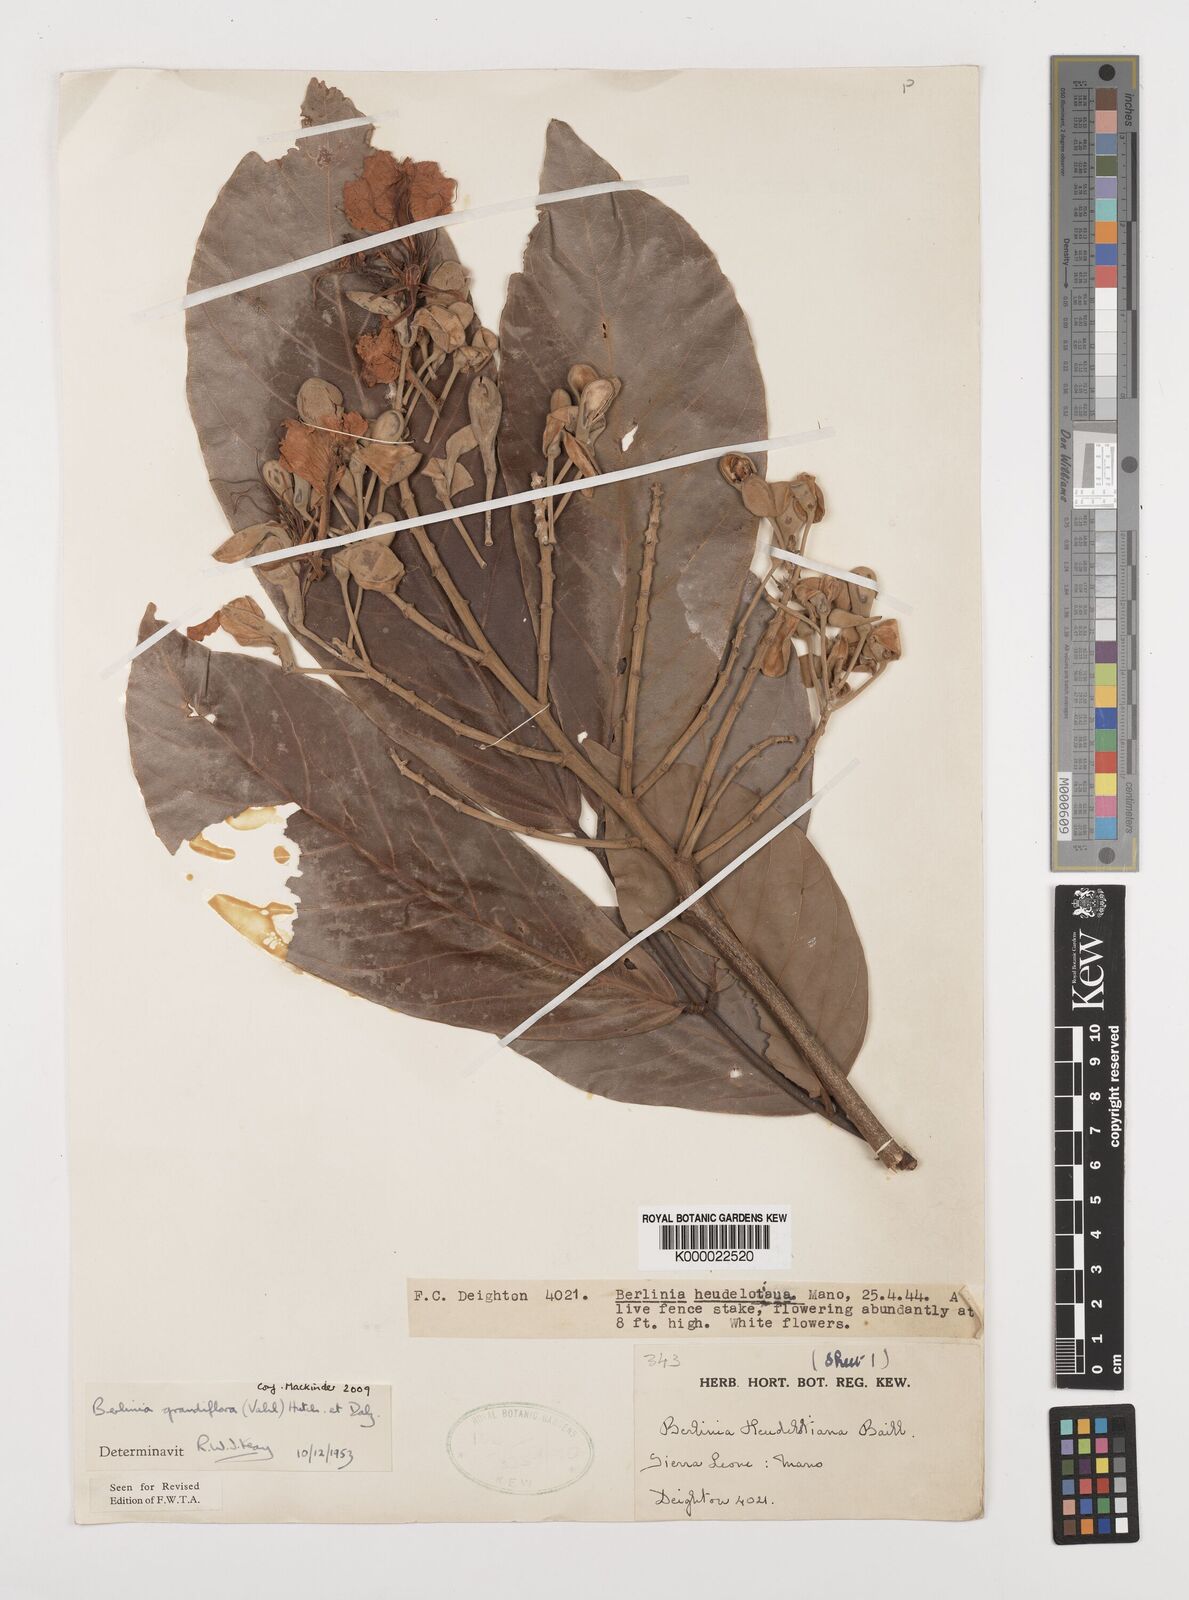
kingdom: Plantae
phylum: Tracheophyta
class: Magnoliopsida
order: Fabales
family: Fabaceae
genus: Berlinia
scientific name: Berlinia grandiflora
